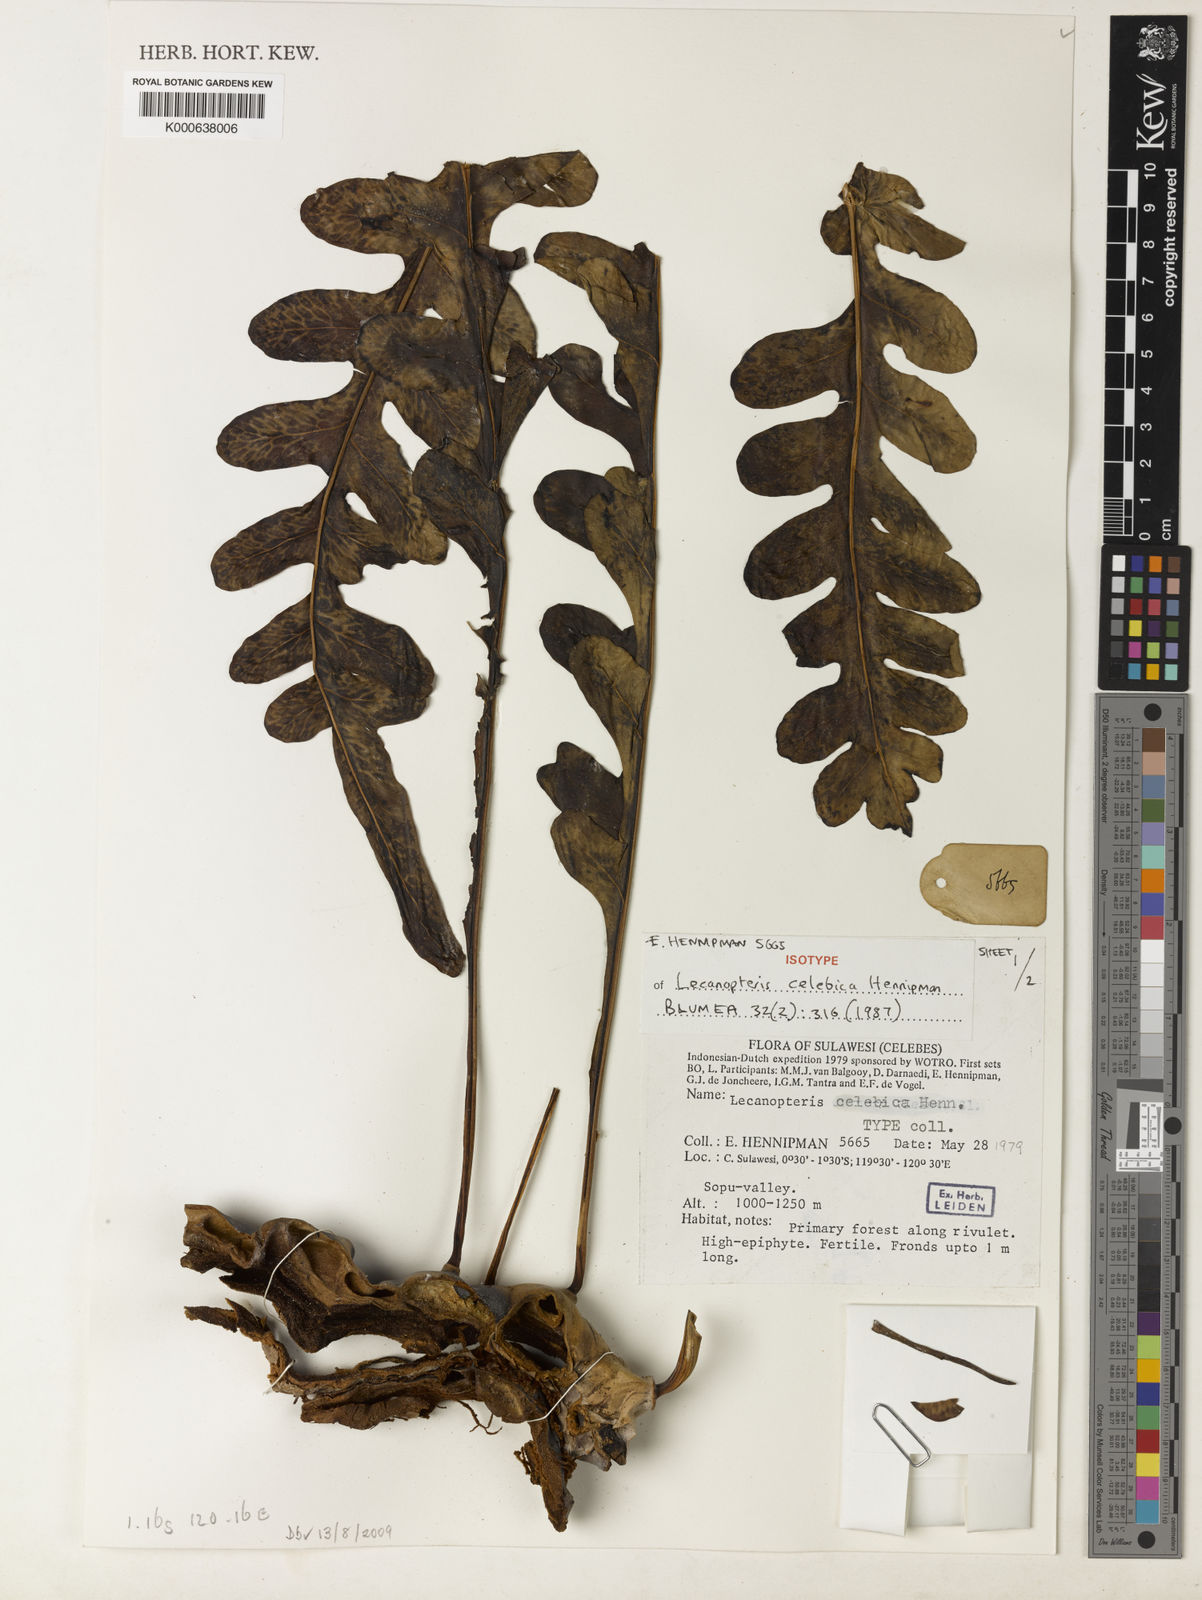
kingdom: Plantae
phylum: Tracheophyta
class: Polypodiopsida
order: Polypodiales
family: Polypodiaceae
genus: Lecanopteris
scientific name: Lecanopteris celebica
